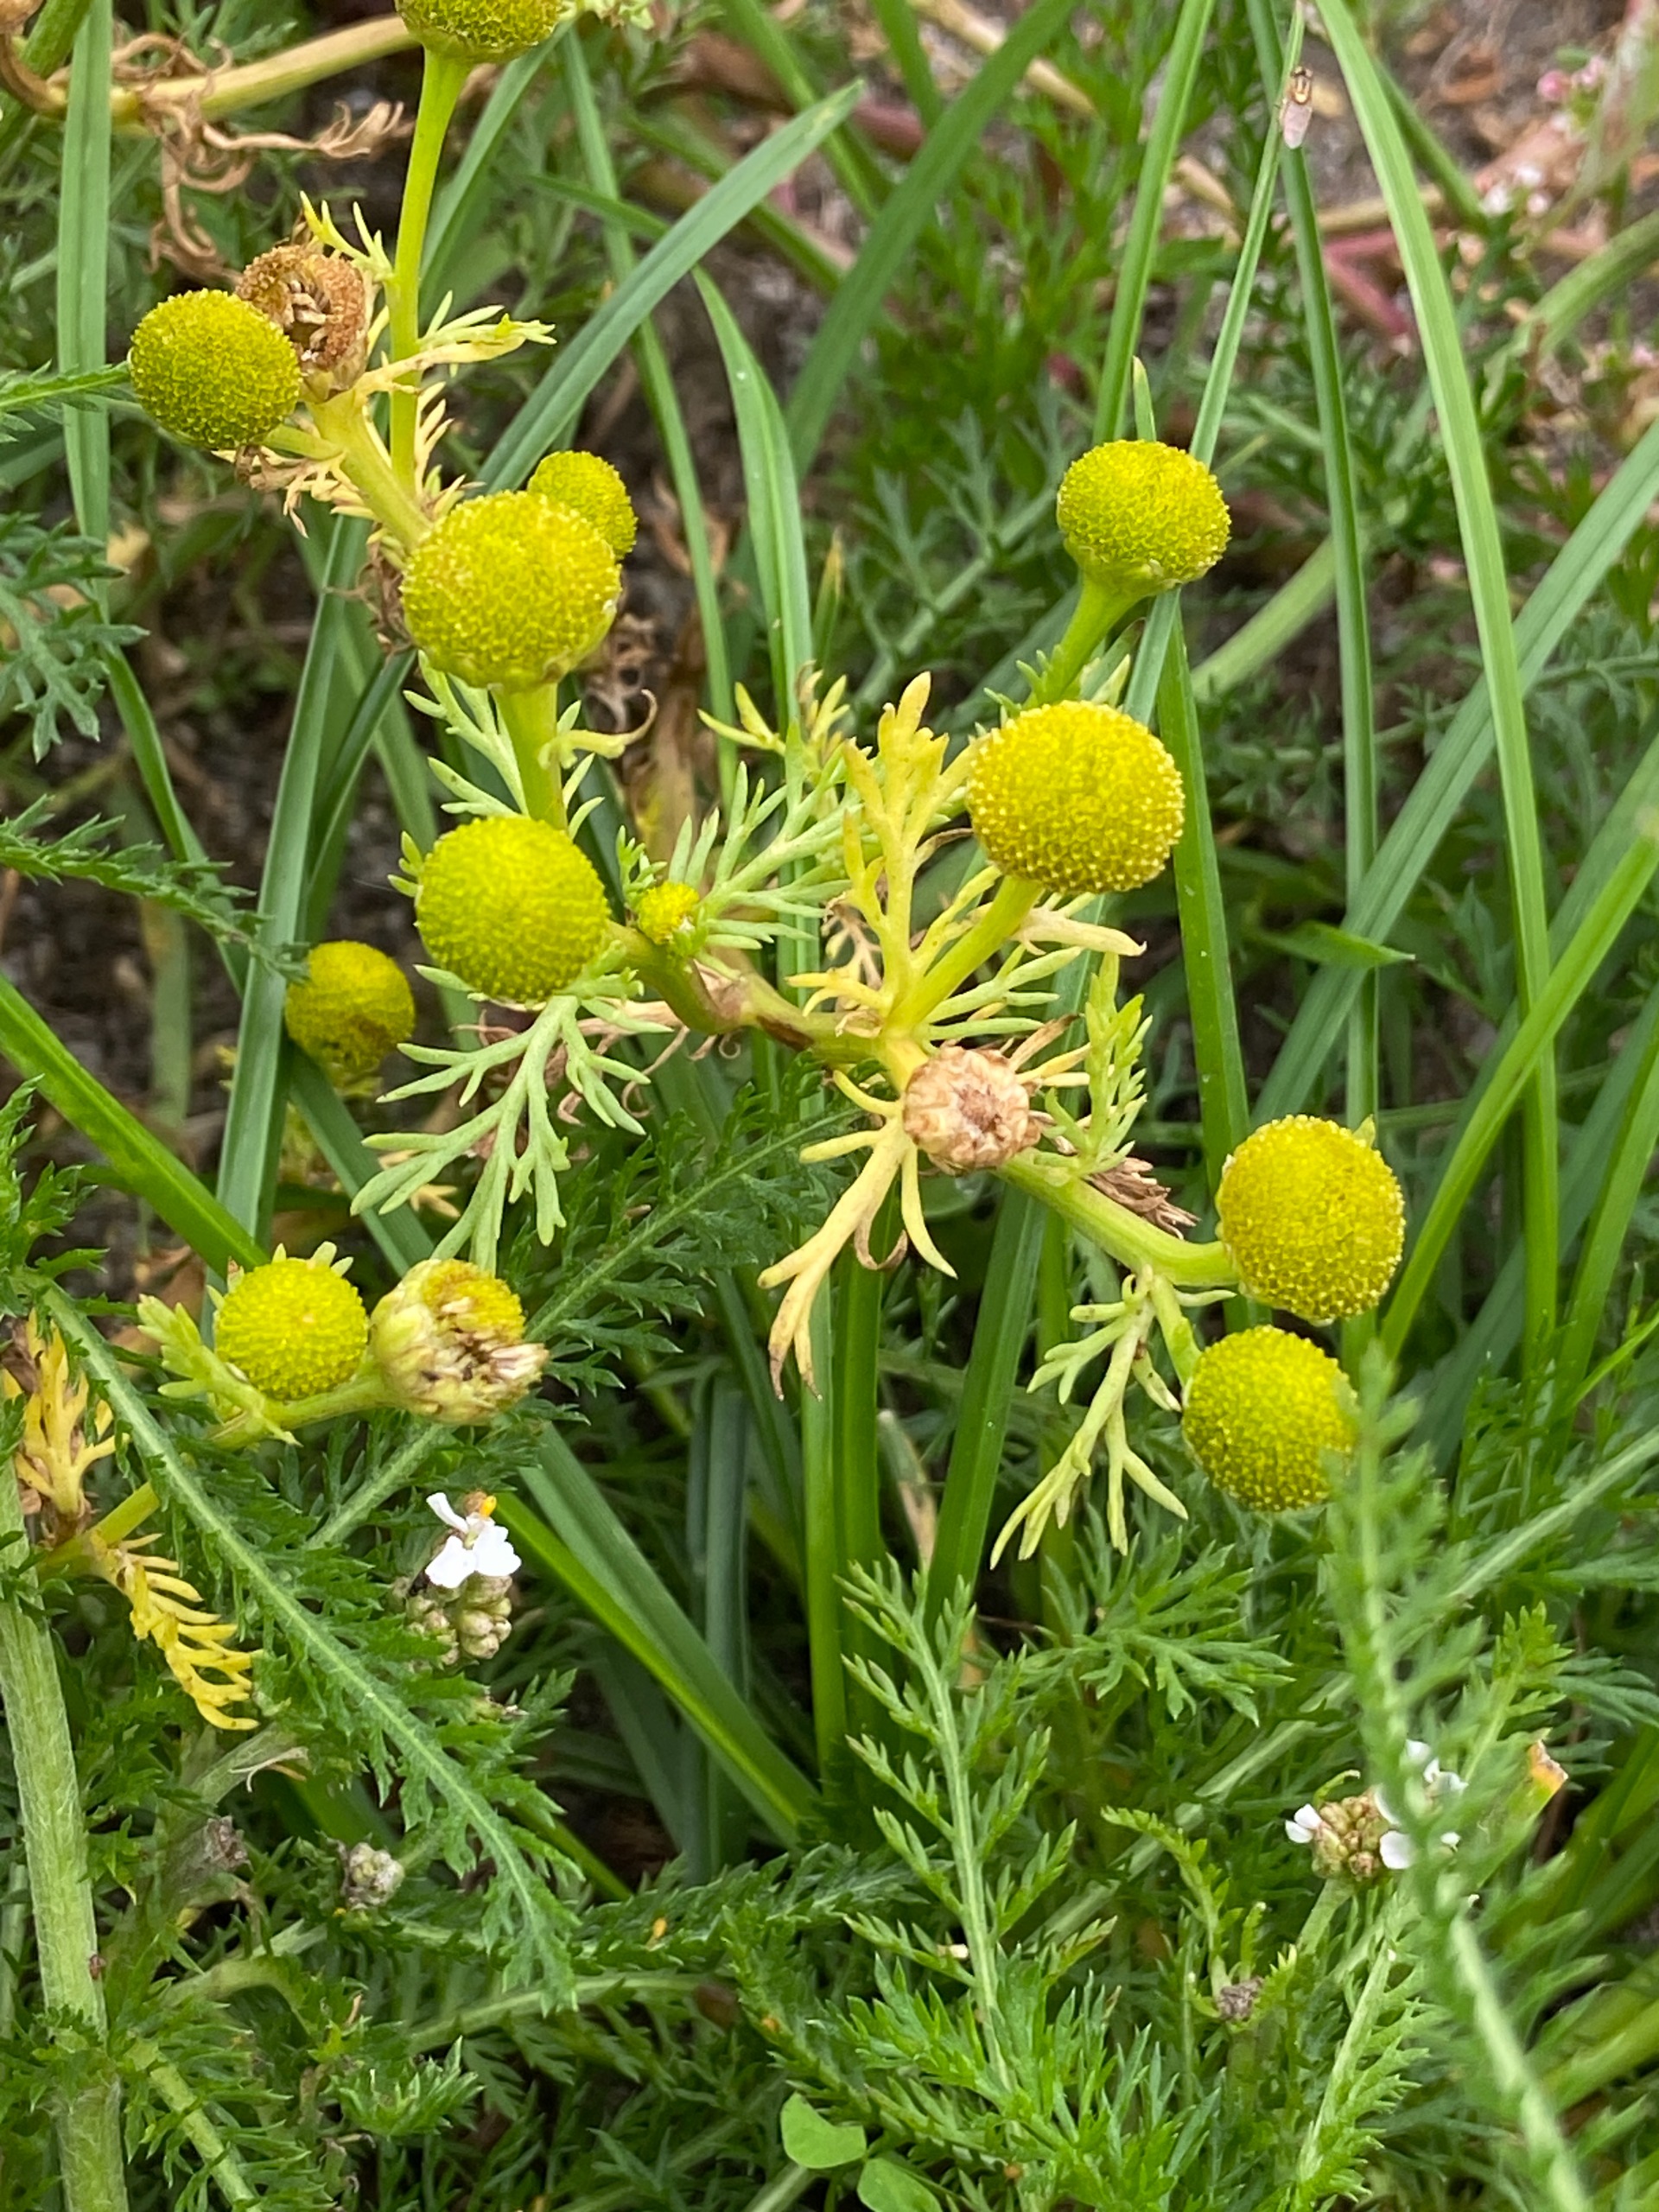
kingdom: Plantae
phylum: Tracheophyta
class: Magnoliopsida
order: Asterales
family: Asteraceae
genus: Matricaria
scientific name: Matricaria discoidea
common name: Skive-kamille
